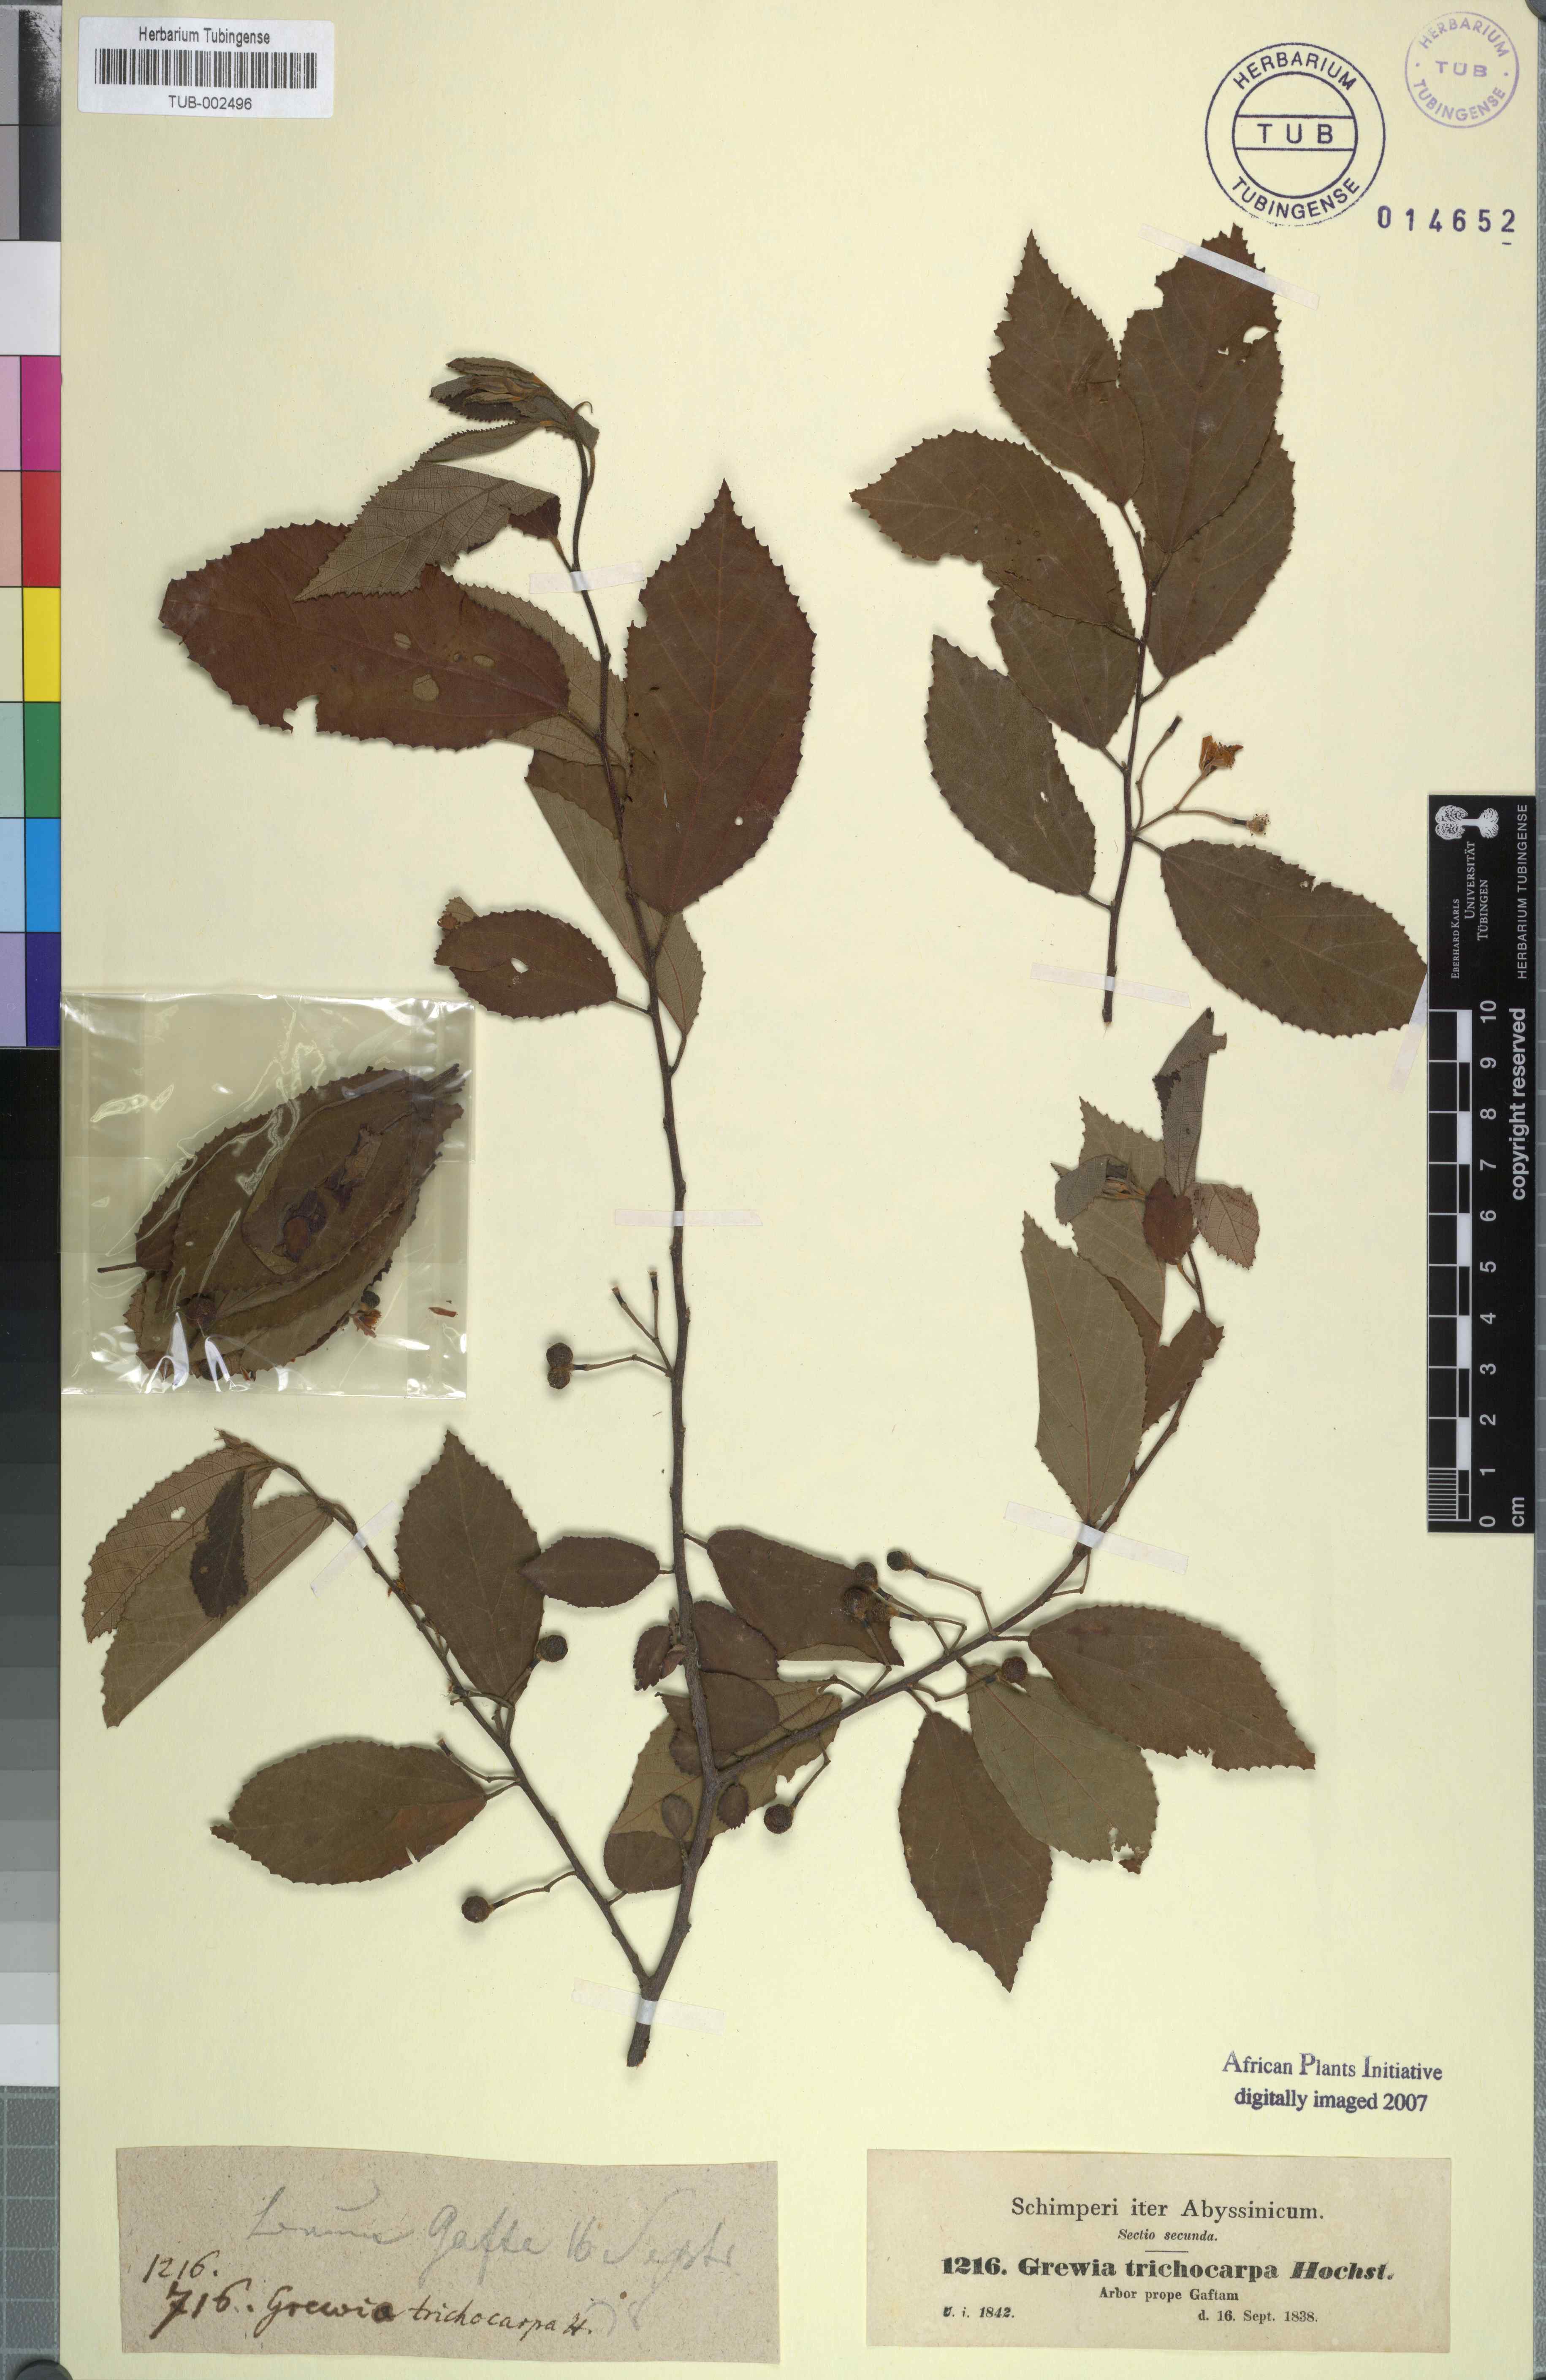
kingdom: Plantae
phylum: Tracheophyta
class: Magnoliopsida
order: Malvales
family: Malvaceae
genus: Grewia
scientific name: Grewia trichocarpa
